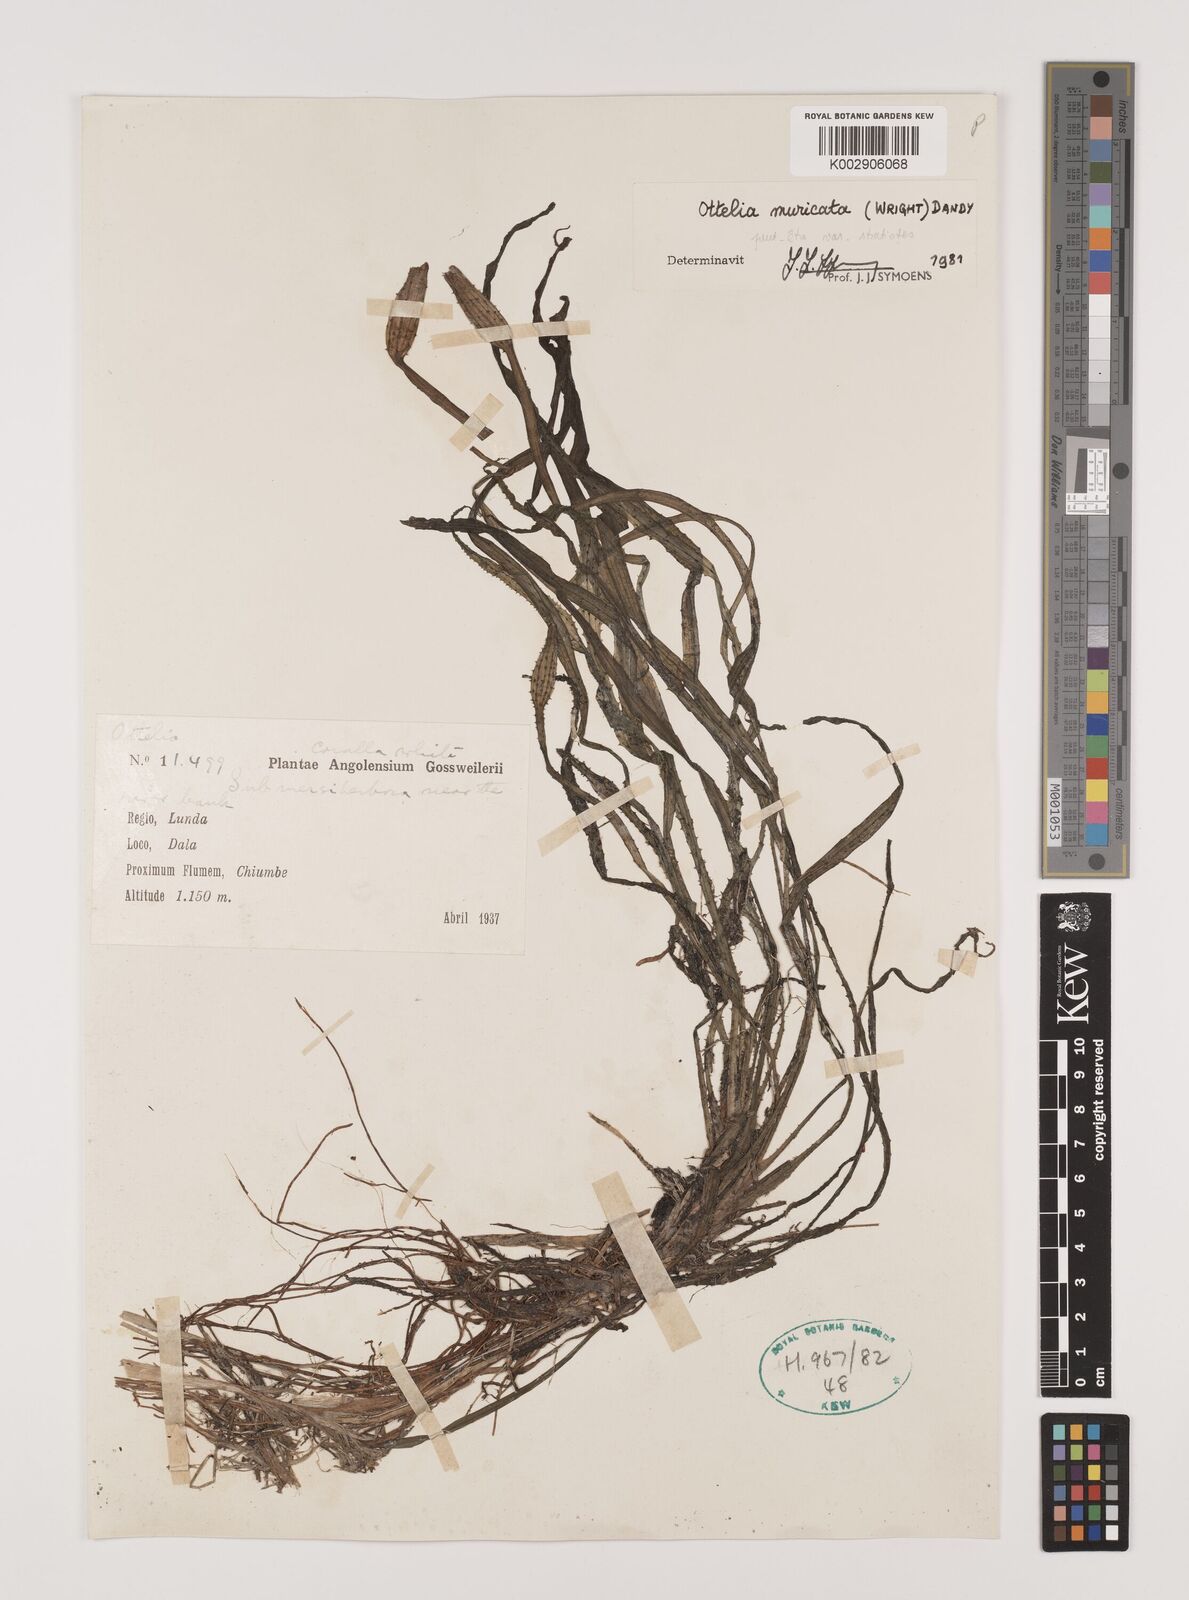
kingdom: Plantae
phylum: Tracheophyta
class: Liliopsida
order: Alismatales
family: Hydrocharitaceae
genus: Ottelia
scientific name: Ottelia muricata
